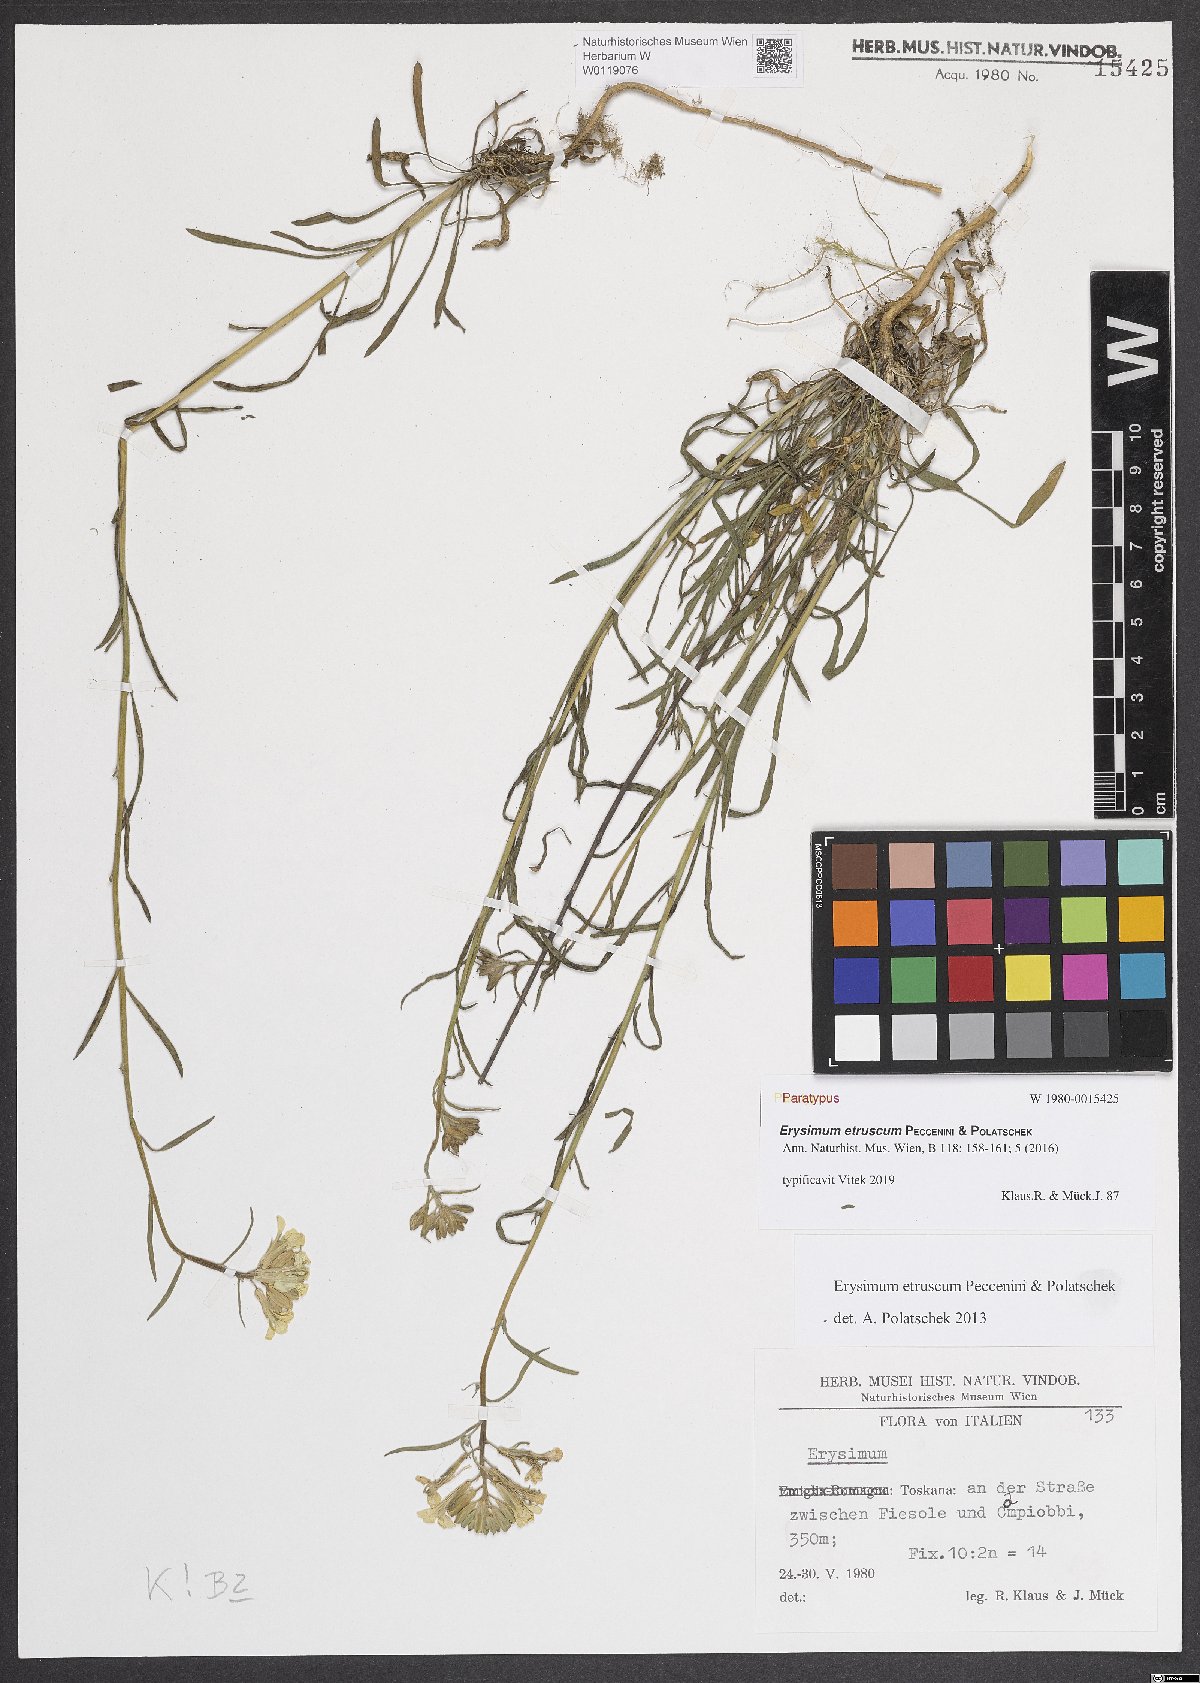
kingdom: Plantae
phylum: Tracheophyta
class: Magnoliopsida
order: Brassicales
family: Brassicaceae
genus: Erysimum
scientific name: Erysimum pseudorhaeticum
